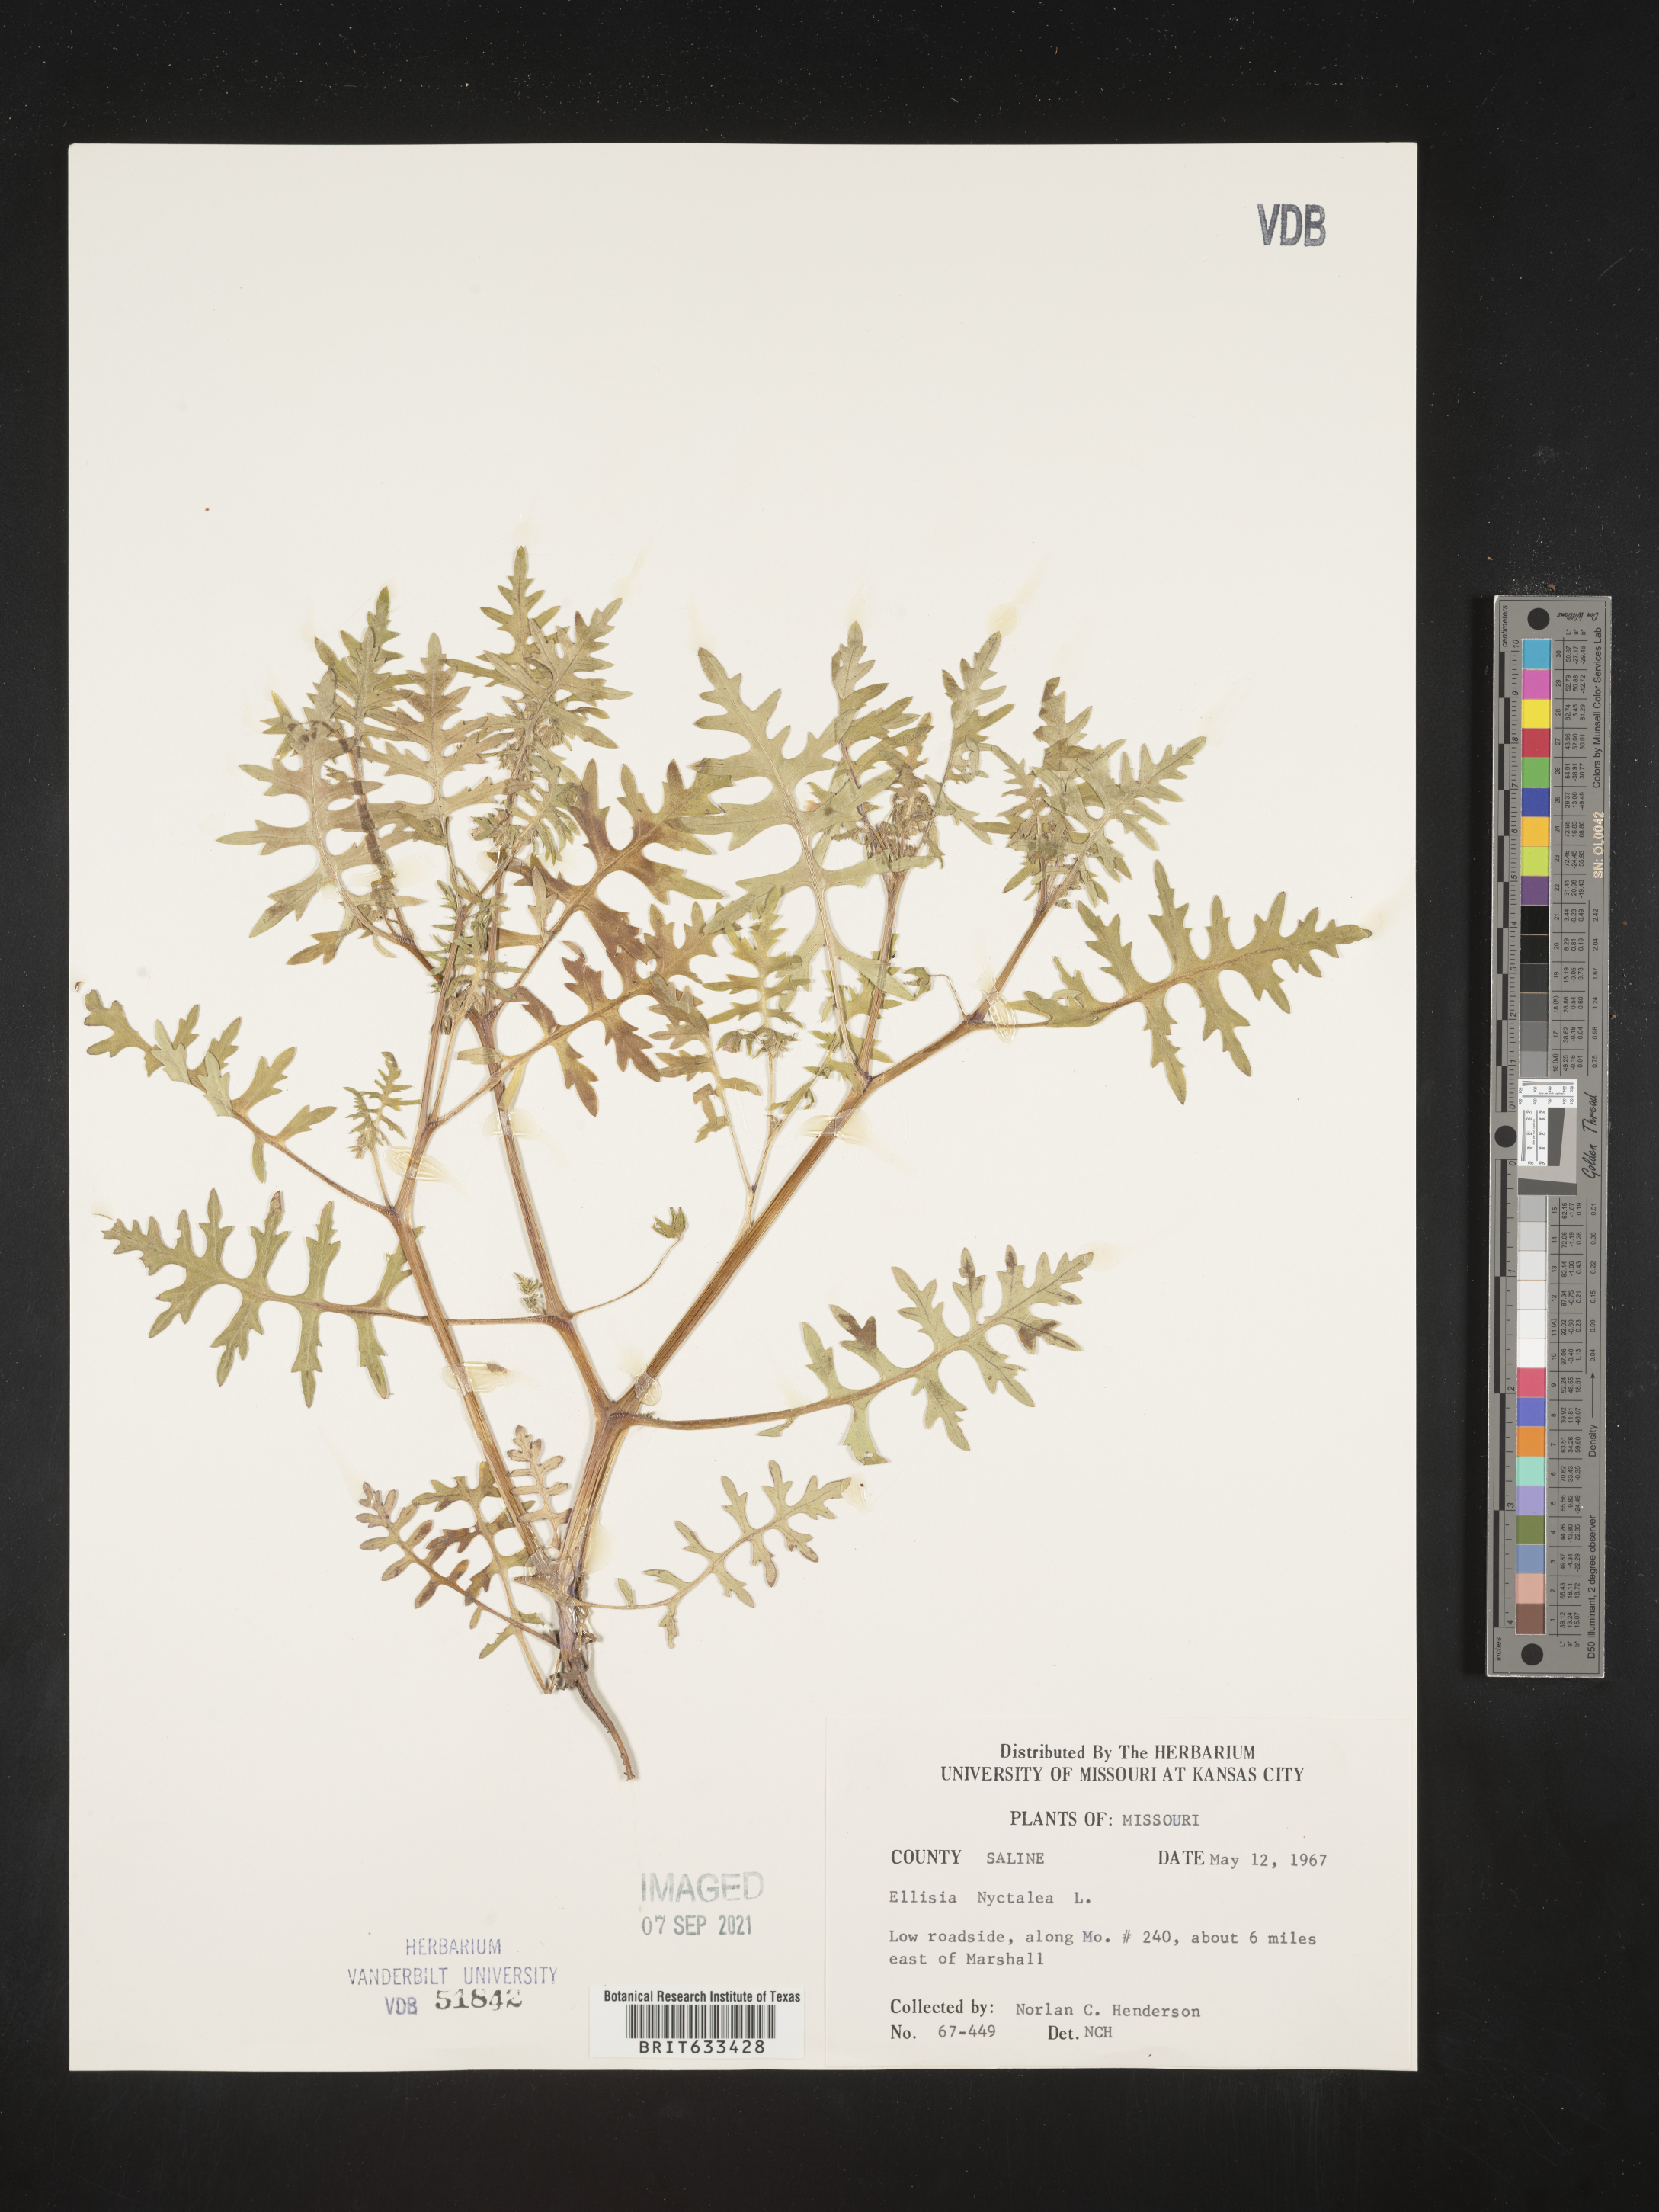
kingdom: Plantae
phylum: Tracheophyta
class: Magnoliopsida
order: Boraginales
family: Hydrophyllaceae
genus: Ellisia
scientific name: Ellisia nyctelea
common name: Aunt lucy
